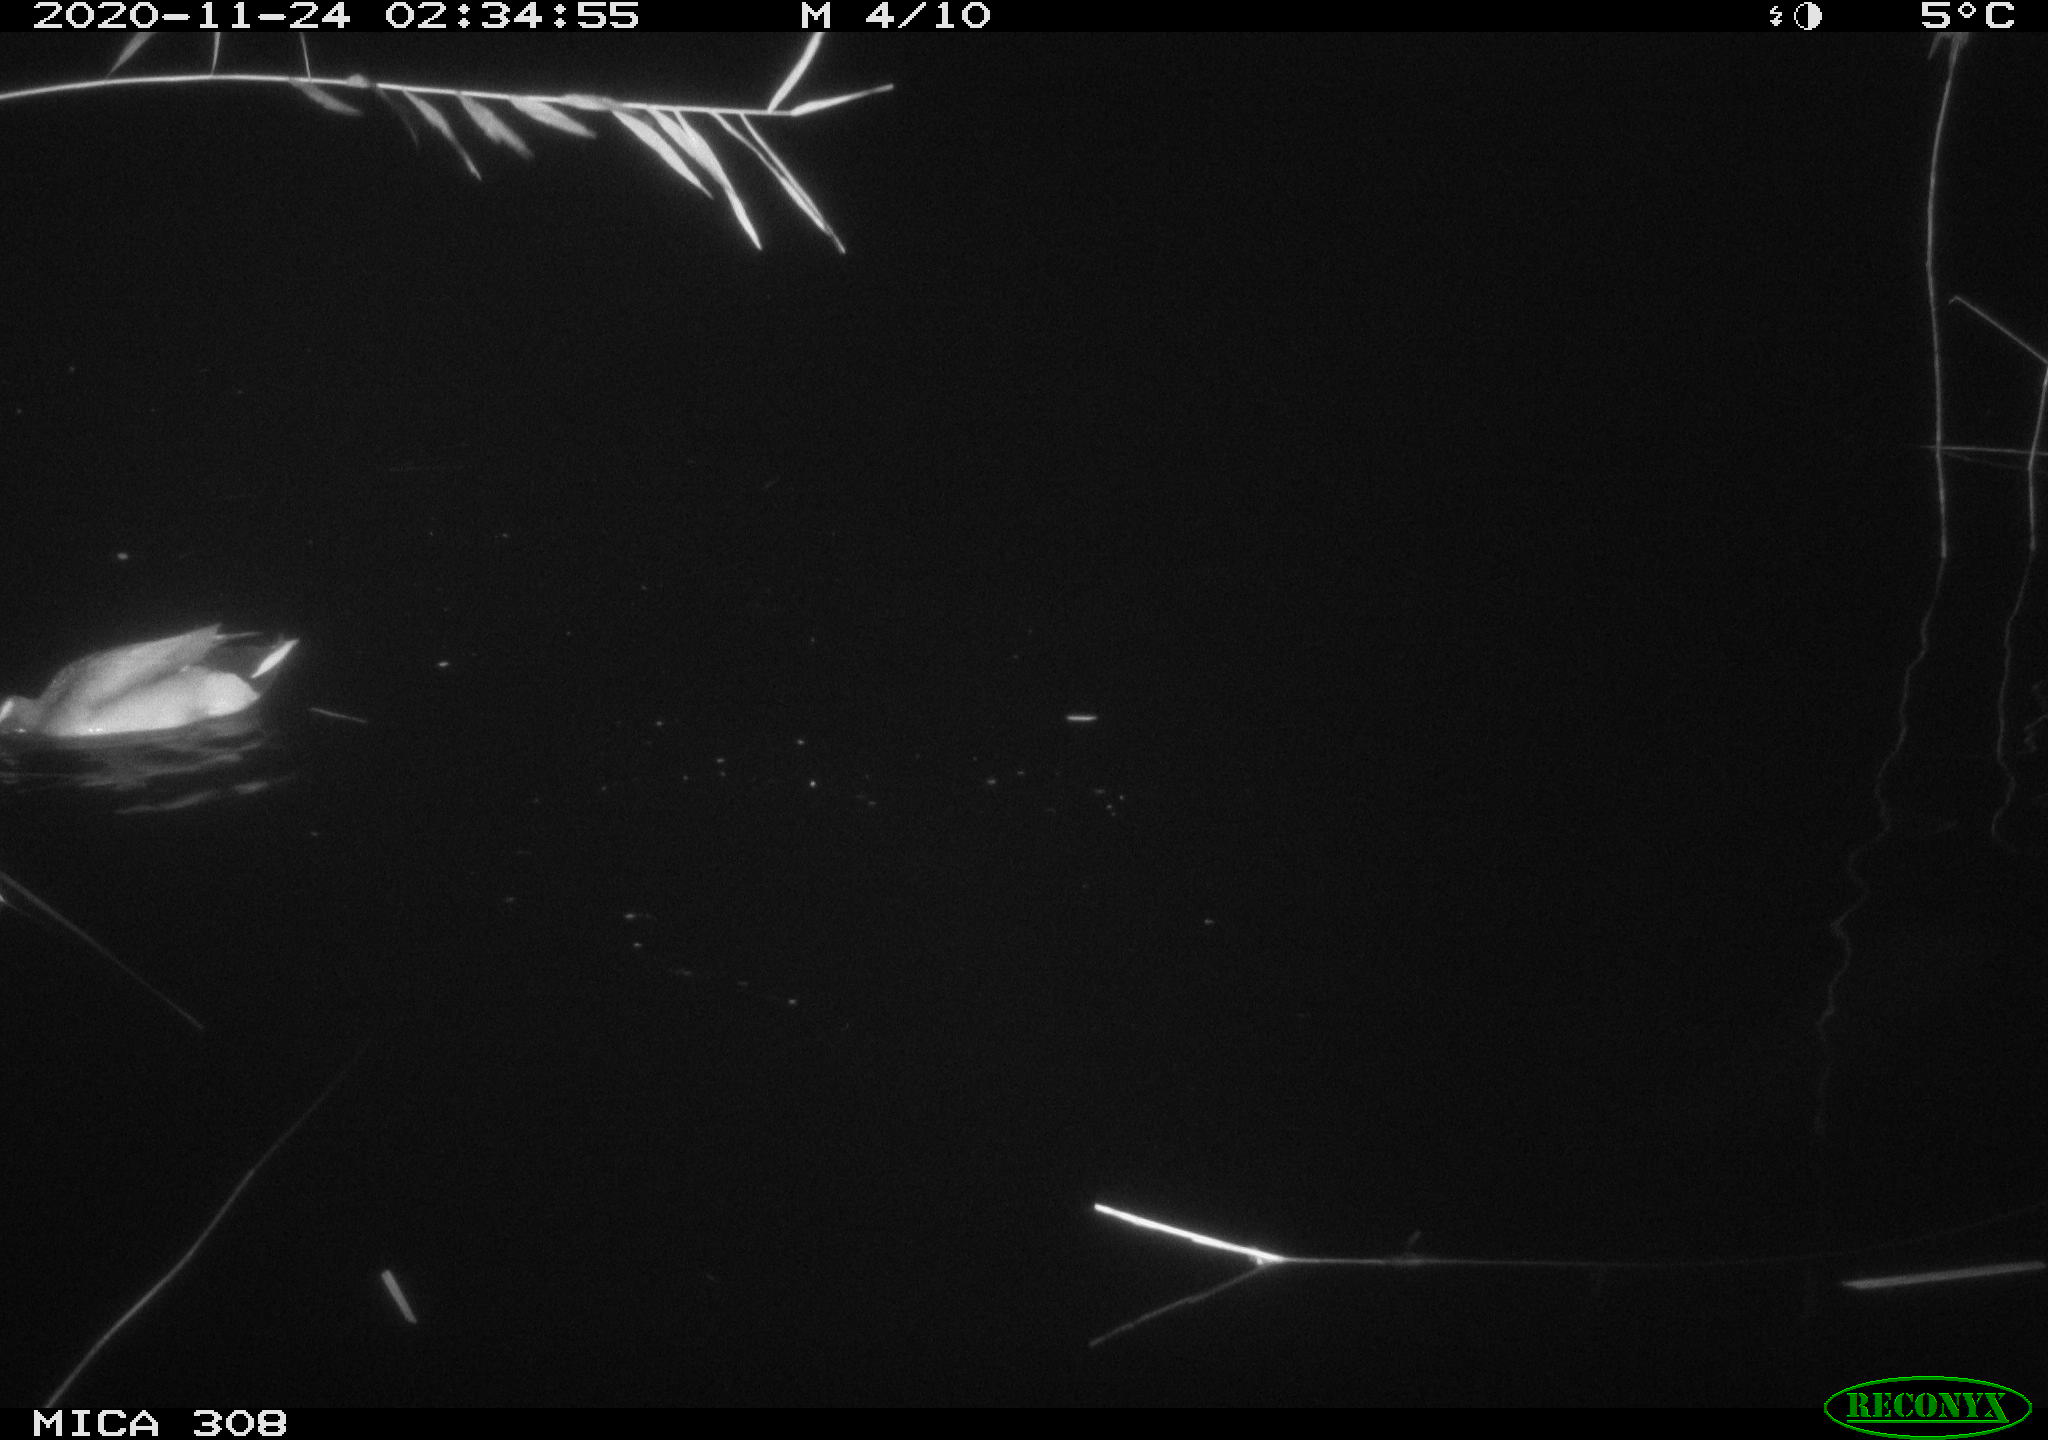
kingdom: Animalia
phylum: Chordata
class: Aves
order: Anseriformes
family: Anatidae
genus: Anas
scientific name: Anas platyrhynchos
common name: Mallard
